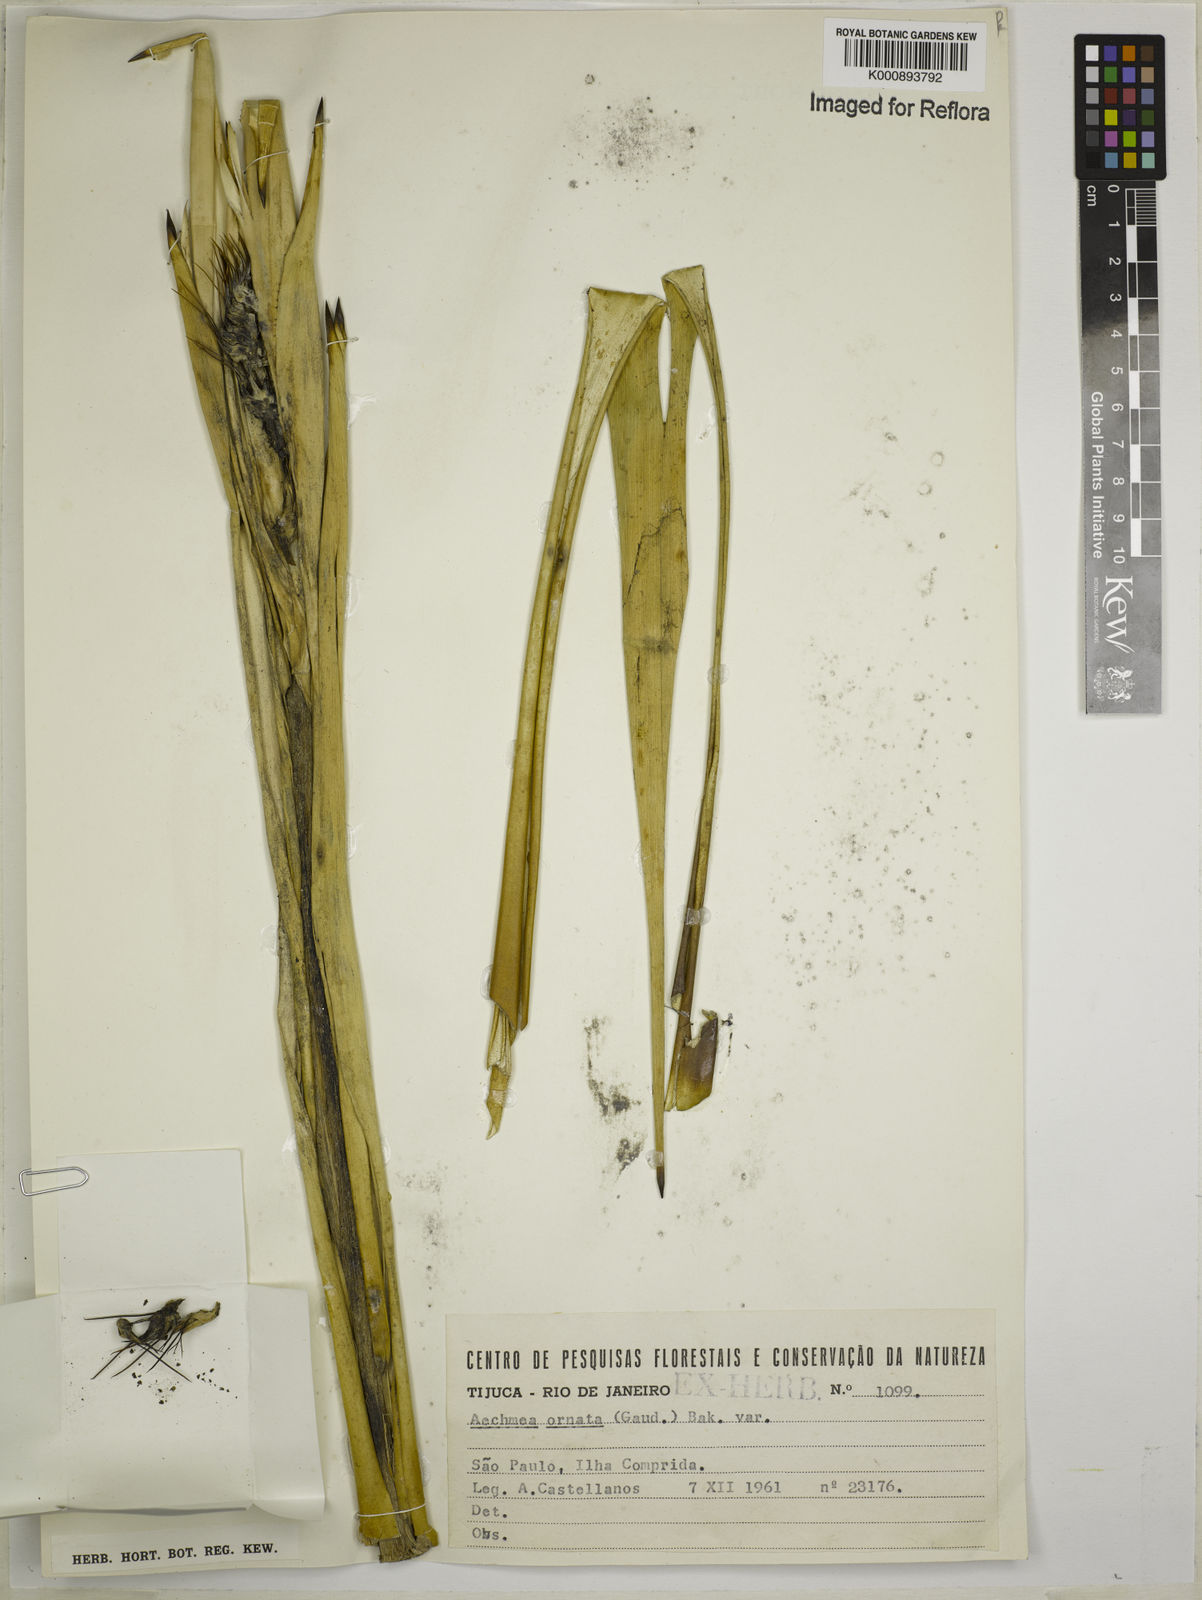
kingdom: Plantae
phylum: Tracheophyta
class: Liliopsida
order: Poales
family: Bromeliaceae
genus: Aechmea
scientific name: Aechmea ornata
